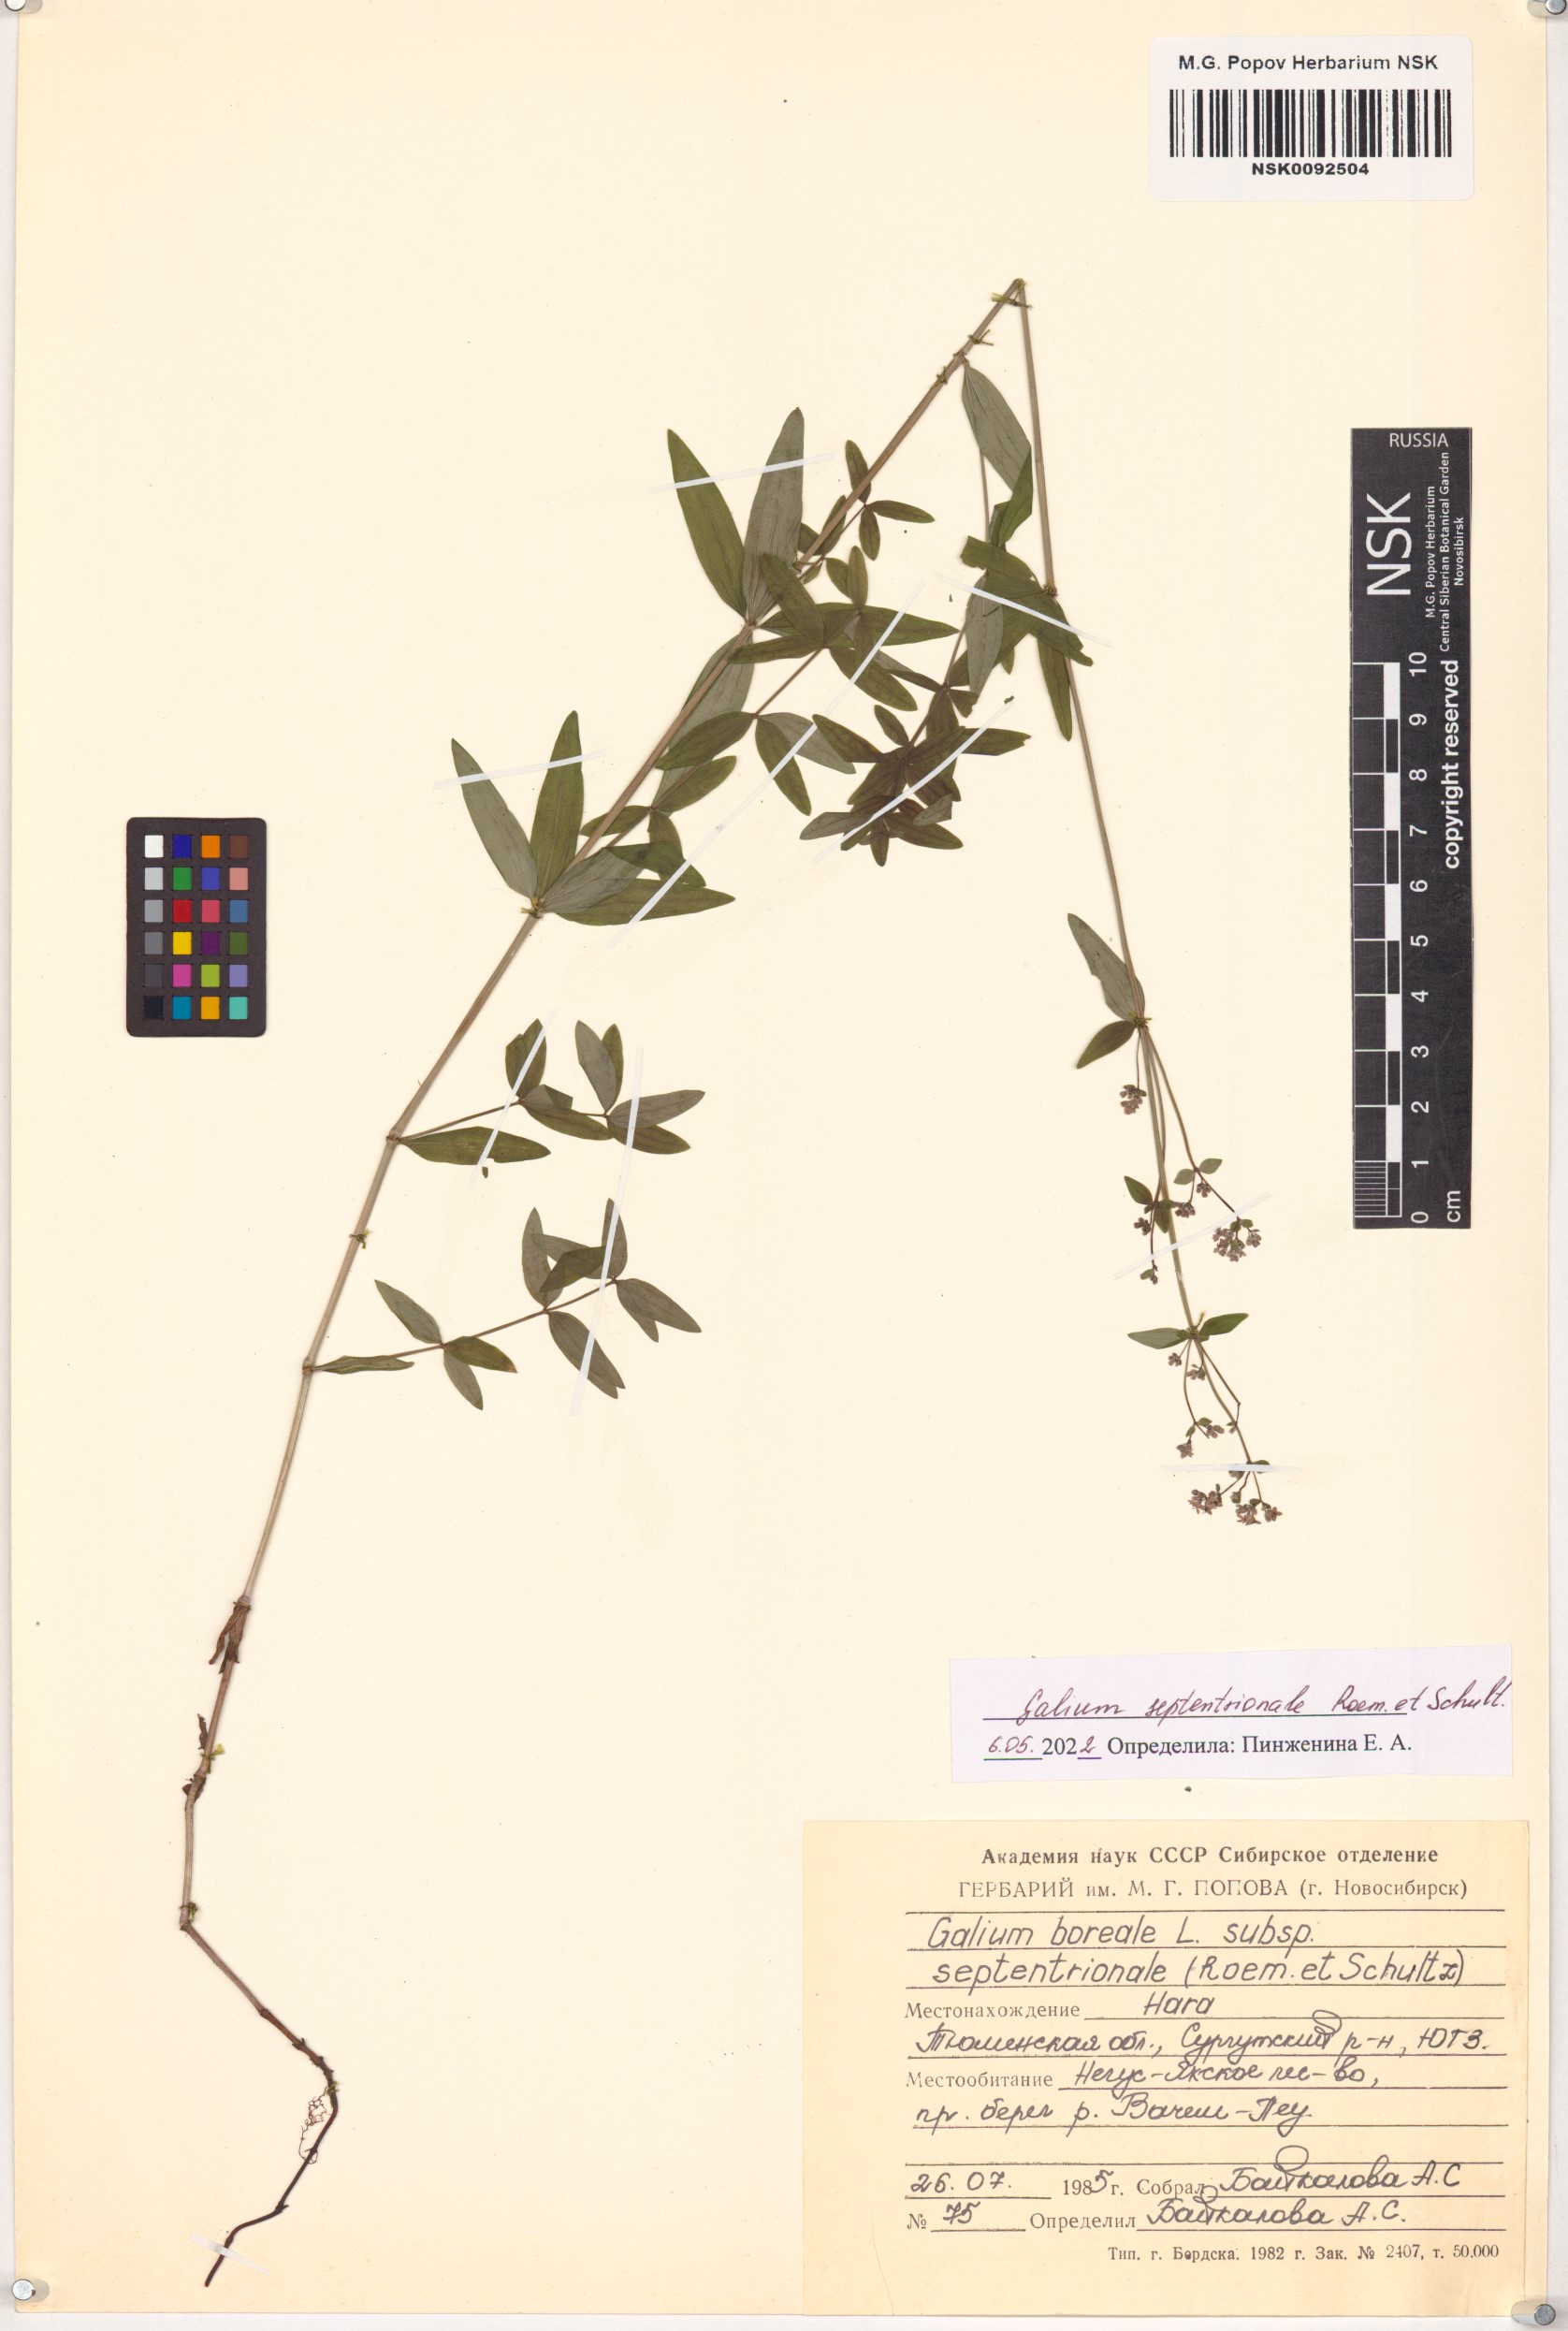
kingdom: Plantae
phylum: Tracheophyta
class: Magnoliopsida
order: Gentianales
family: Rubiaceae
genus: Galium
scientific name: Galium boreale
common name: Northern bedstraw
